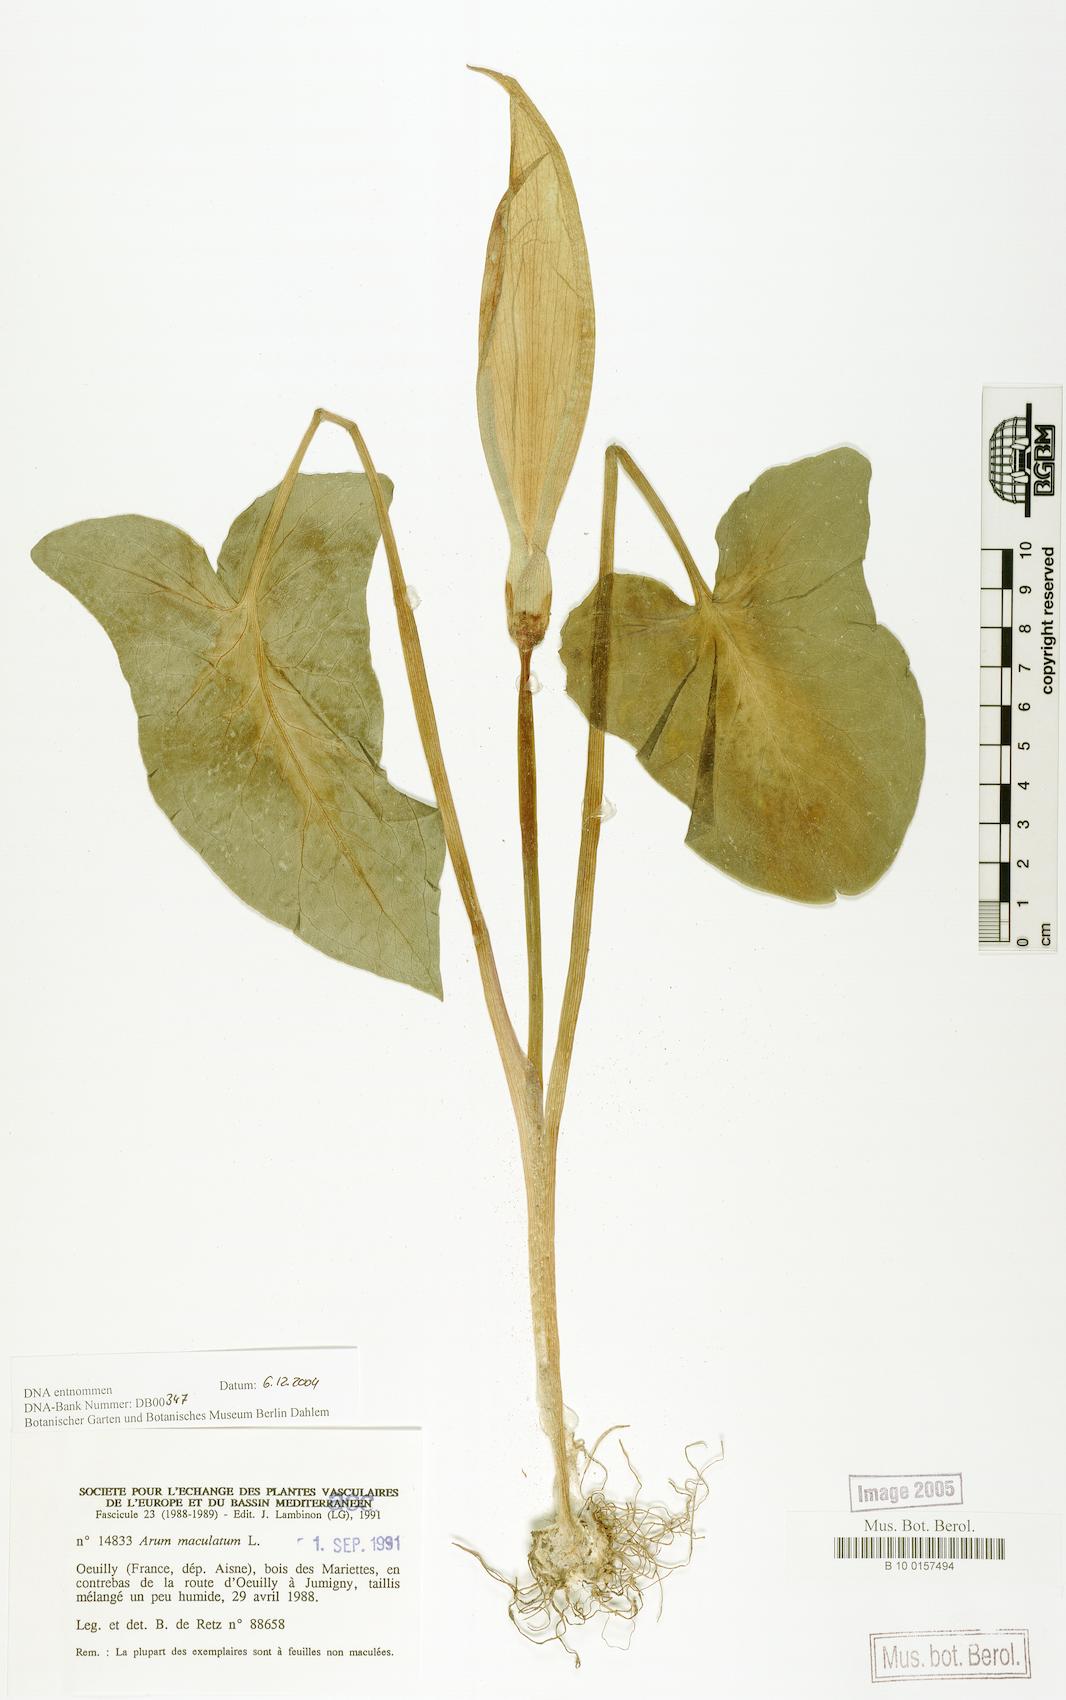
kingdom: Plantae
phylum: Tracheophyta
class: Liliopsida
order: Alismatales
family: Araceae
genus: Arum
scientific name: Arum maculatum
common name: Lords-and-ladies
